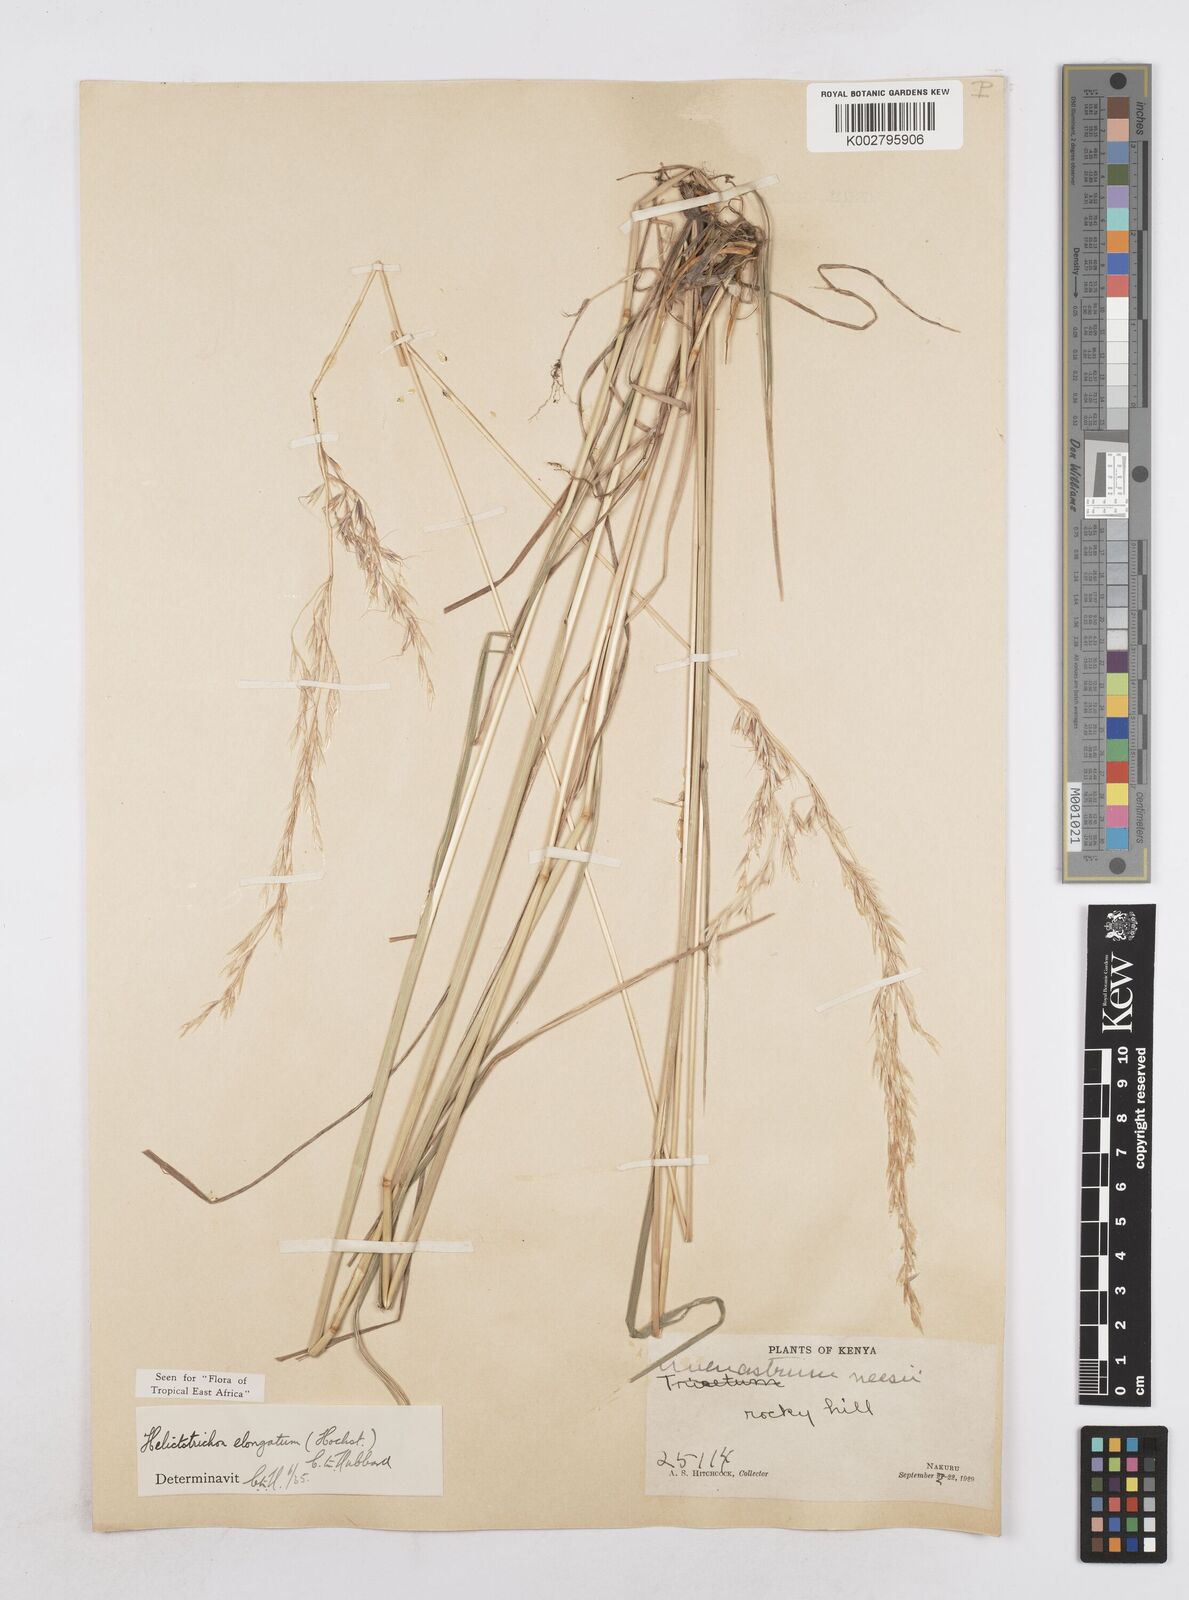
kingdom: Plantae
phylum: Tracheophyta
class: Liliopsida
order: Poales
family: Poaceae
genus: Trisetopsis
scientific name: Trisetopsis elongata
